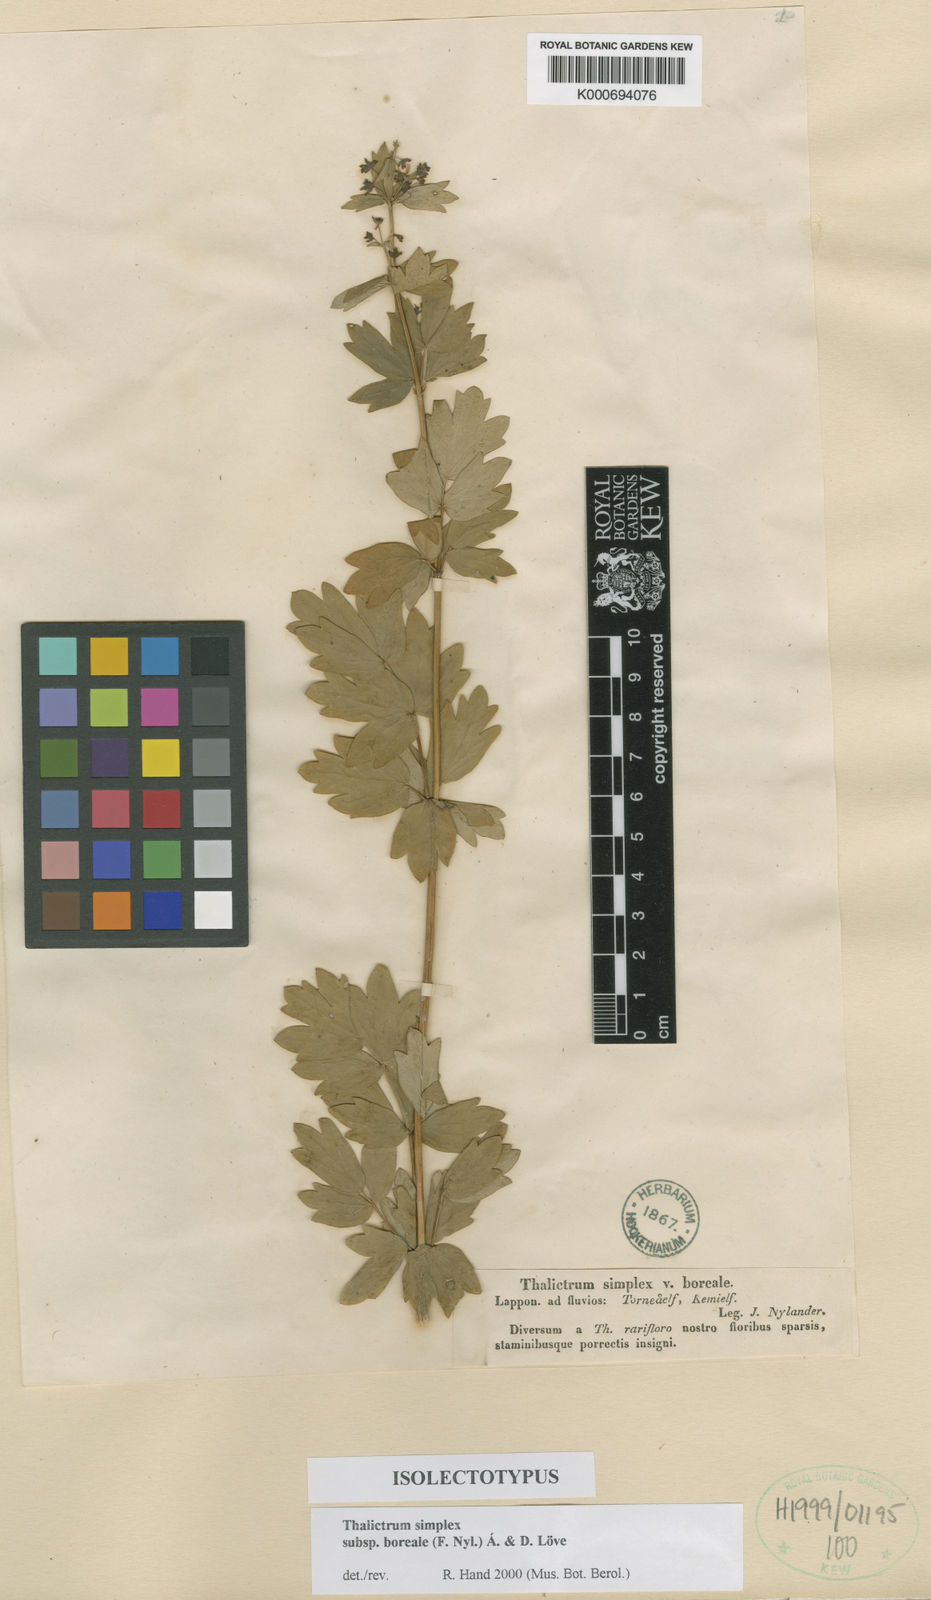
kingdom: Plantae
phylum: Tracheophyta
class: Magnoliopsida
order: Ranunculales
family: Ranunculaceae
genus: Thalictrum
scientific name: Thalictrum simplex
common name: Small meadow-rue
